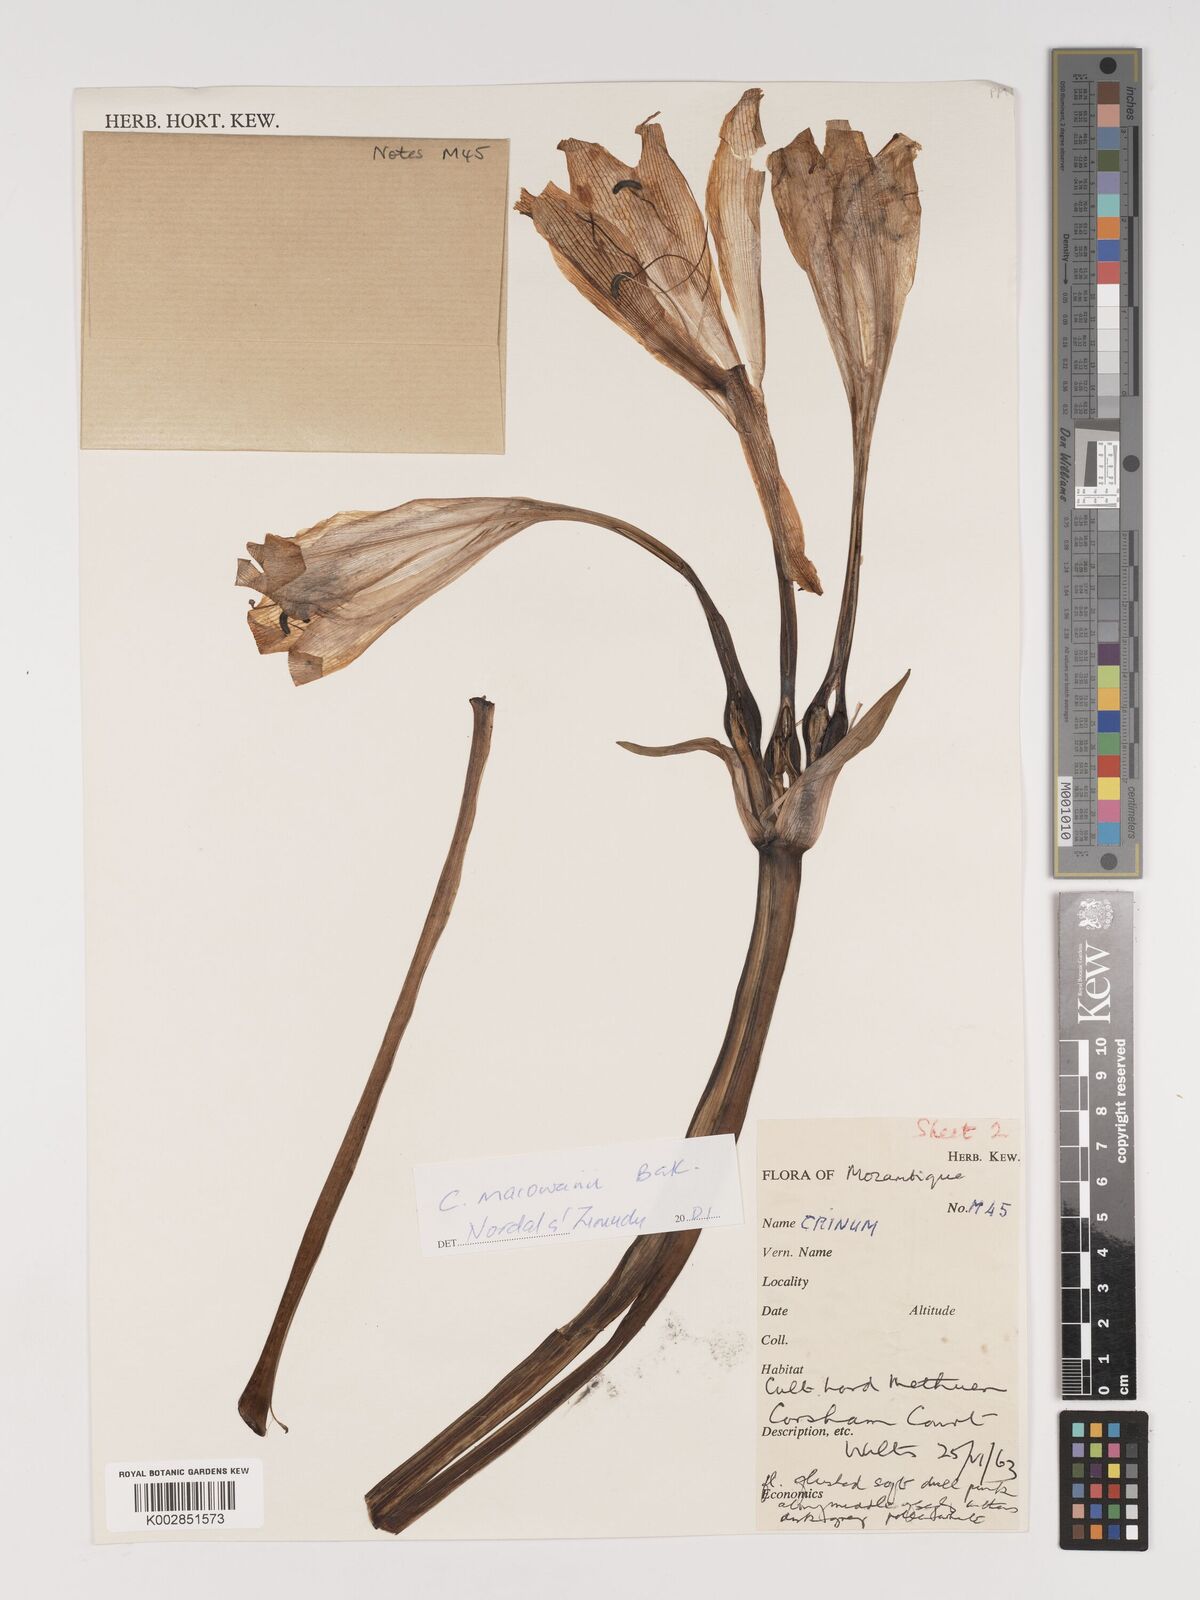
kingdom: Plantae
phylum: Tracheophyta
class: Liliopsida
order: Asparagales
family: Amaryllidaceae
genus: Crinum
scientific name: Crinum macowanii
